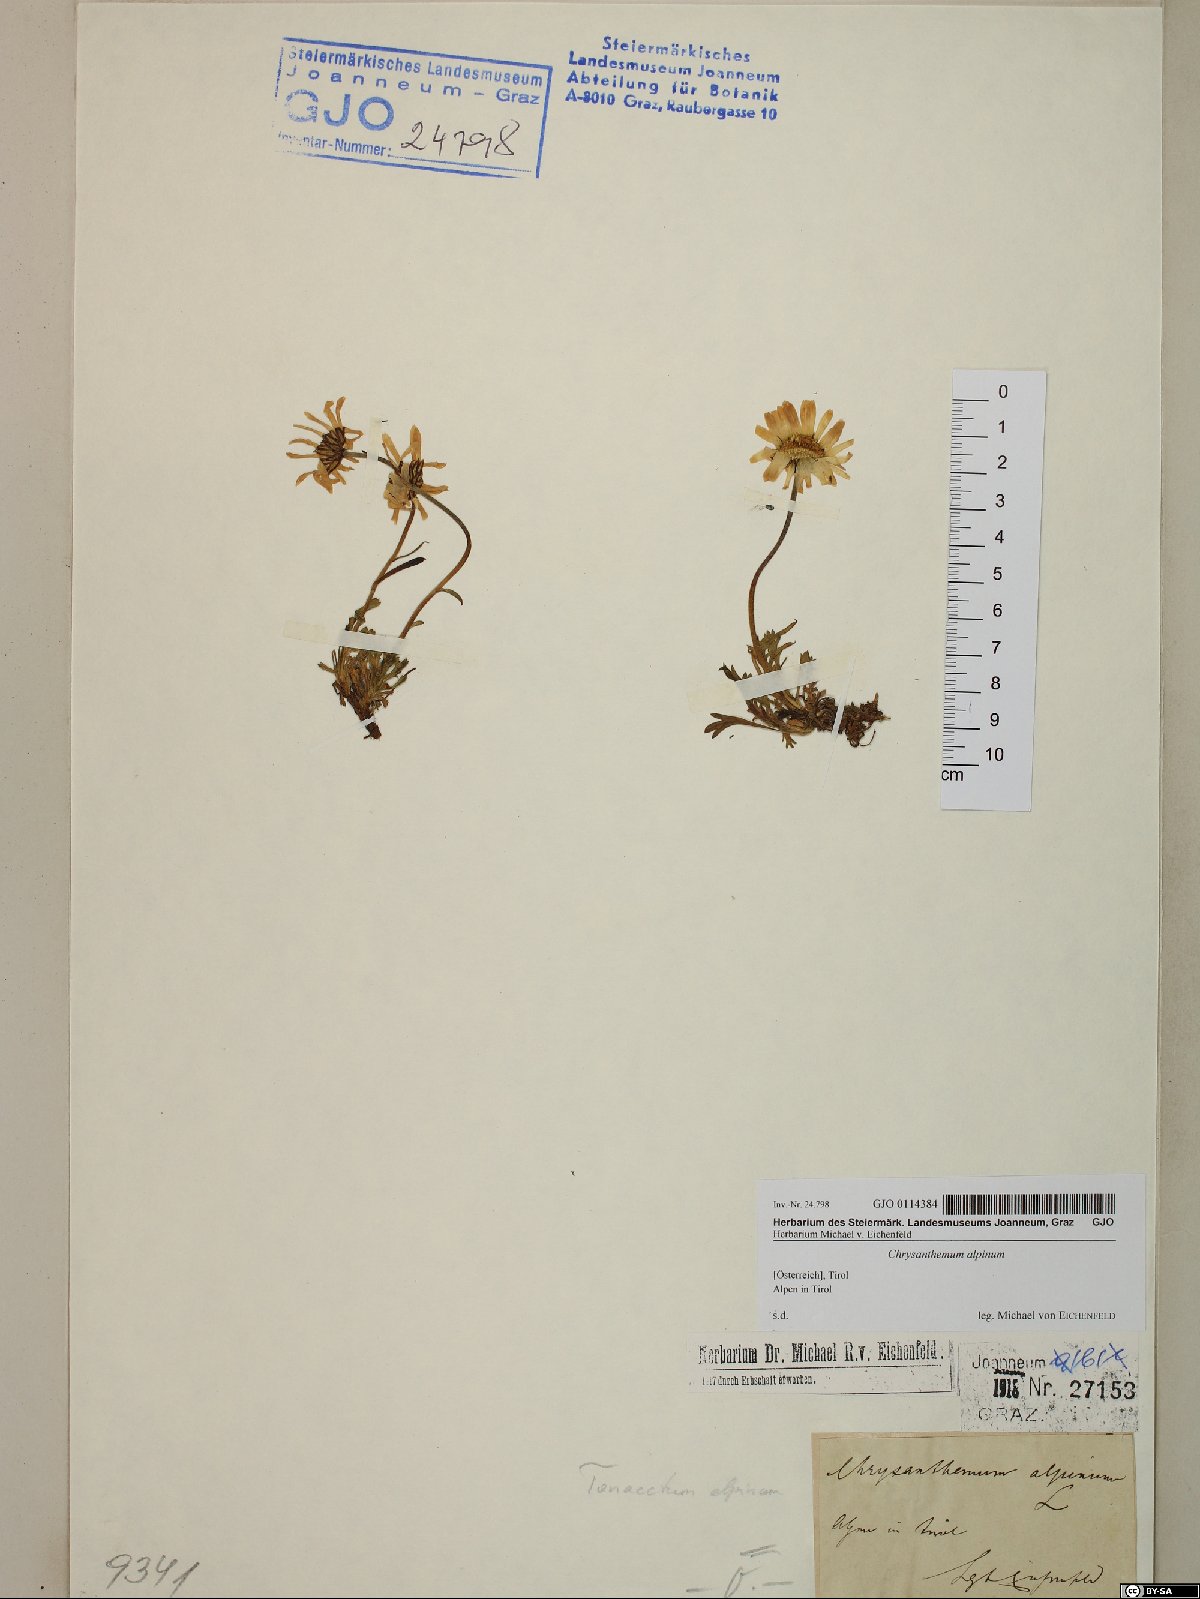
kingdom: Plantae
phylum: Tracheophyta
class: Magnoliopsida
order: Asterales
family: Asteraceae
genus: Leucanthemopsis
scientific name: Leucanthemopsis alpina
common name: Alpine moon daisy
